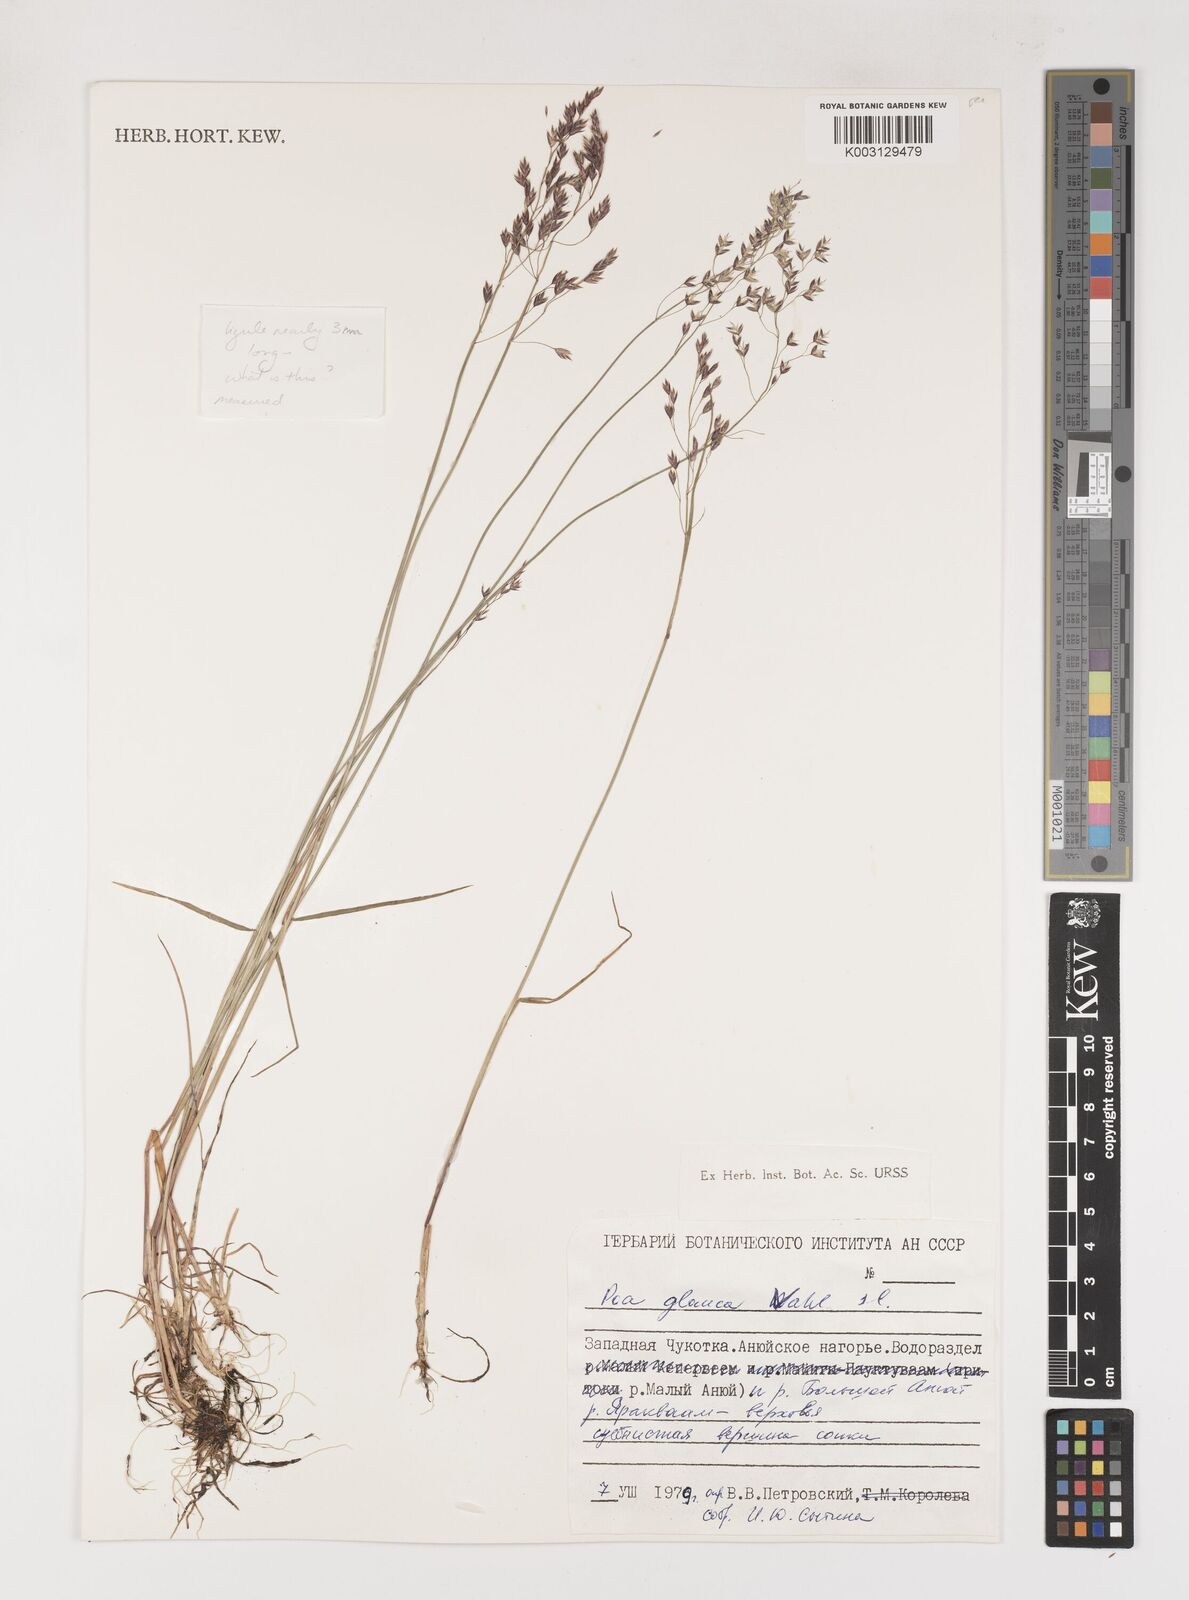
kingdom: Plantae
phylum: Tracheophyta
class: Liliopsida
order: Poales
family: Poaceae
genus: Poa
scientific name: Poa glauca
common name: Glaucous bluegrass
